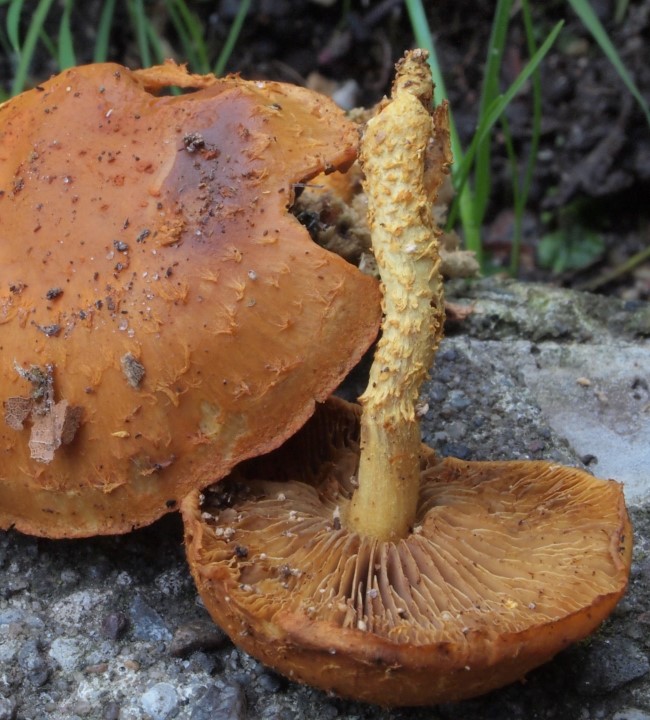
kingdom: Fungi
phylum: Basidiomycota
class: Agaricomycetes
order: Agaricales
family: Strophariaceae
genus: Pholiota
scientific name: Pholiota flammans
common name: flamme-skælhat
